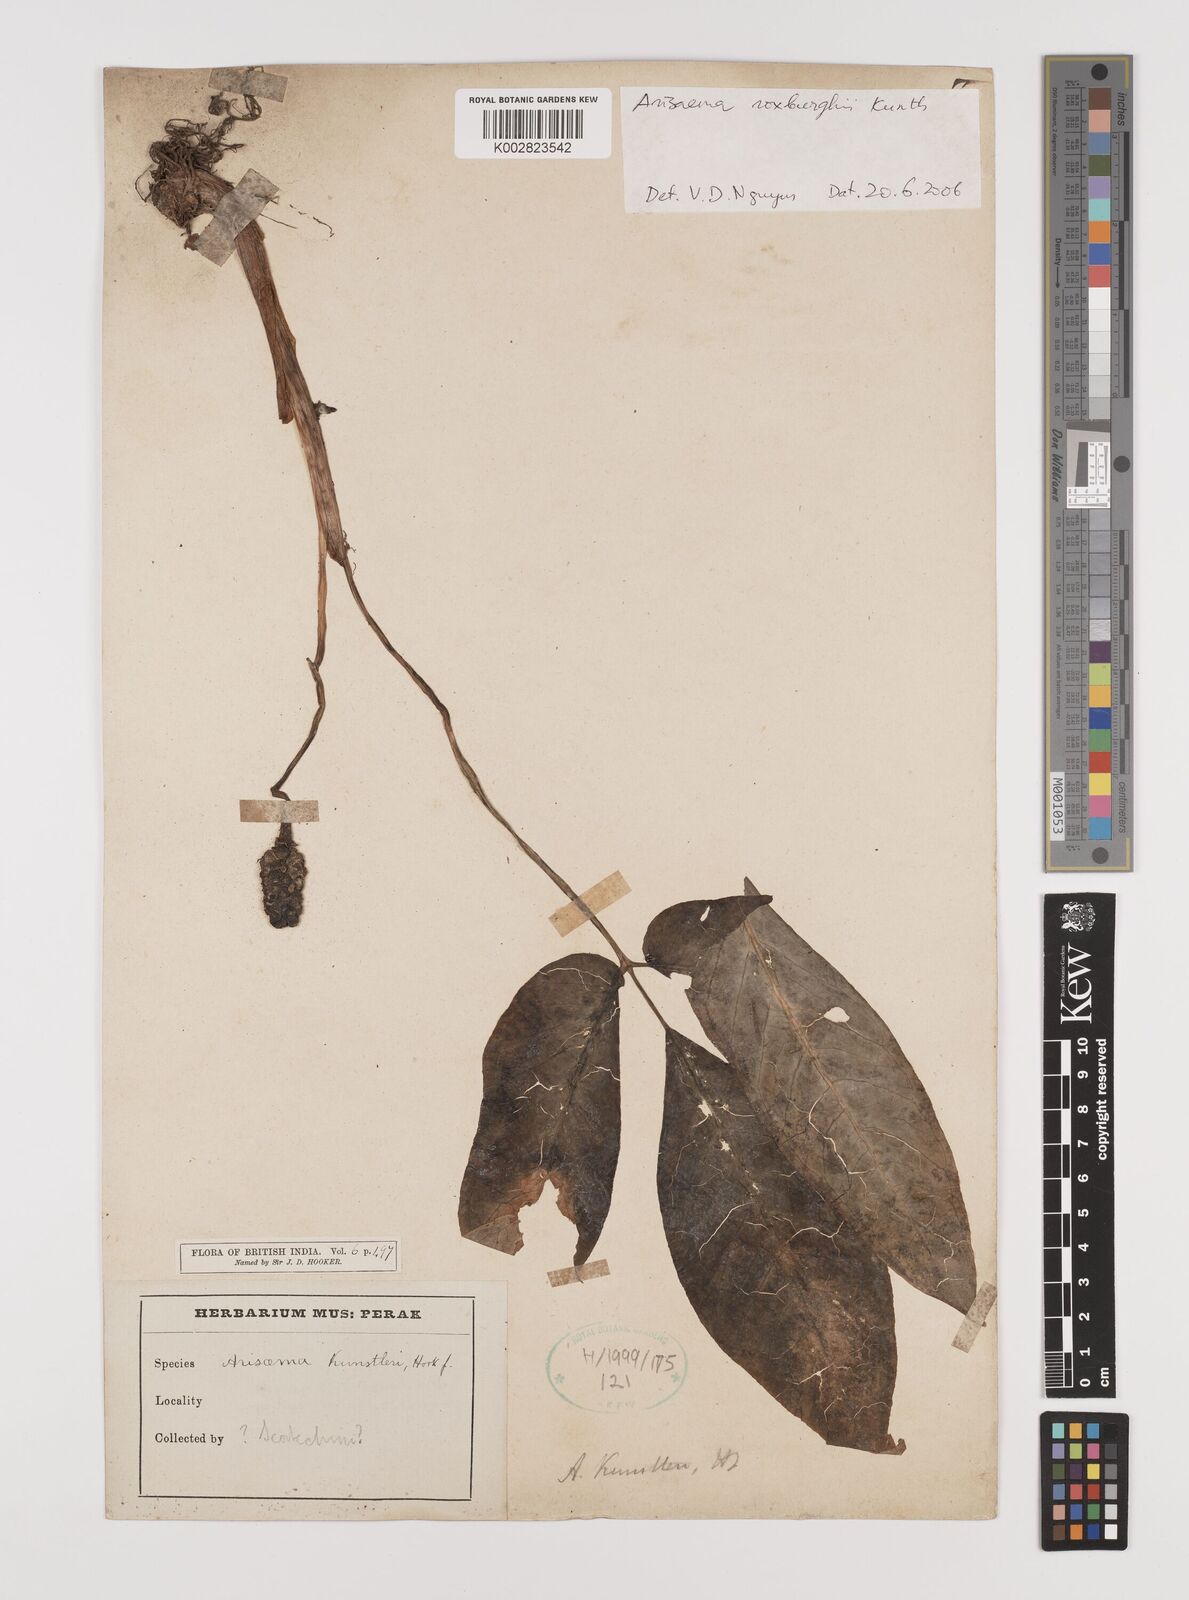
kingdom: Plantae
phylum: Tracheophyta
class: Liliopsida
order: Alismatales
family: Araceae
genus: Arisaema
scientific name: Arisaema roxburghii
